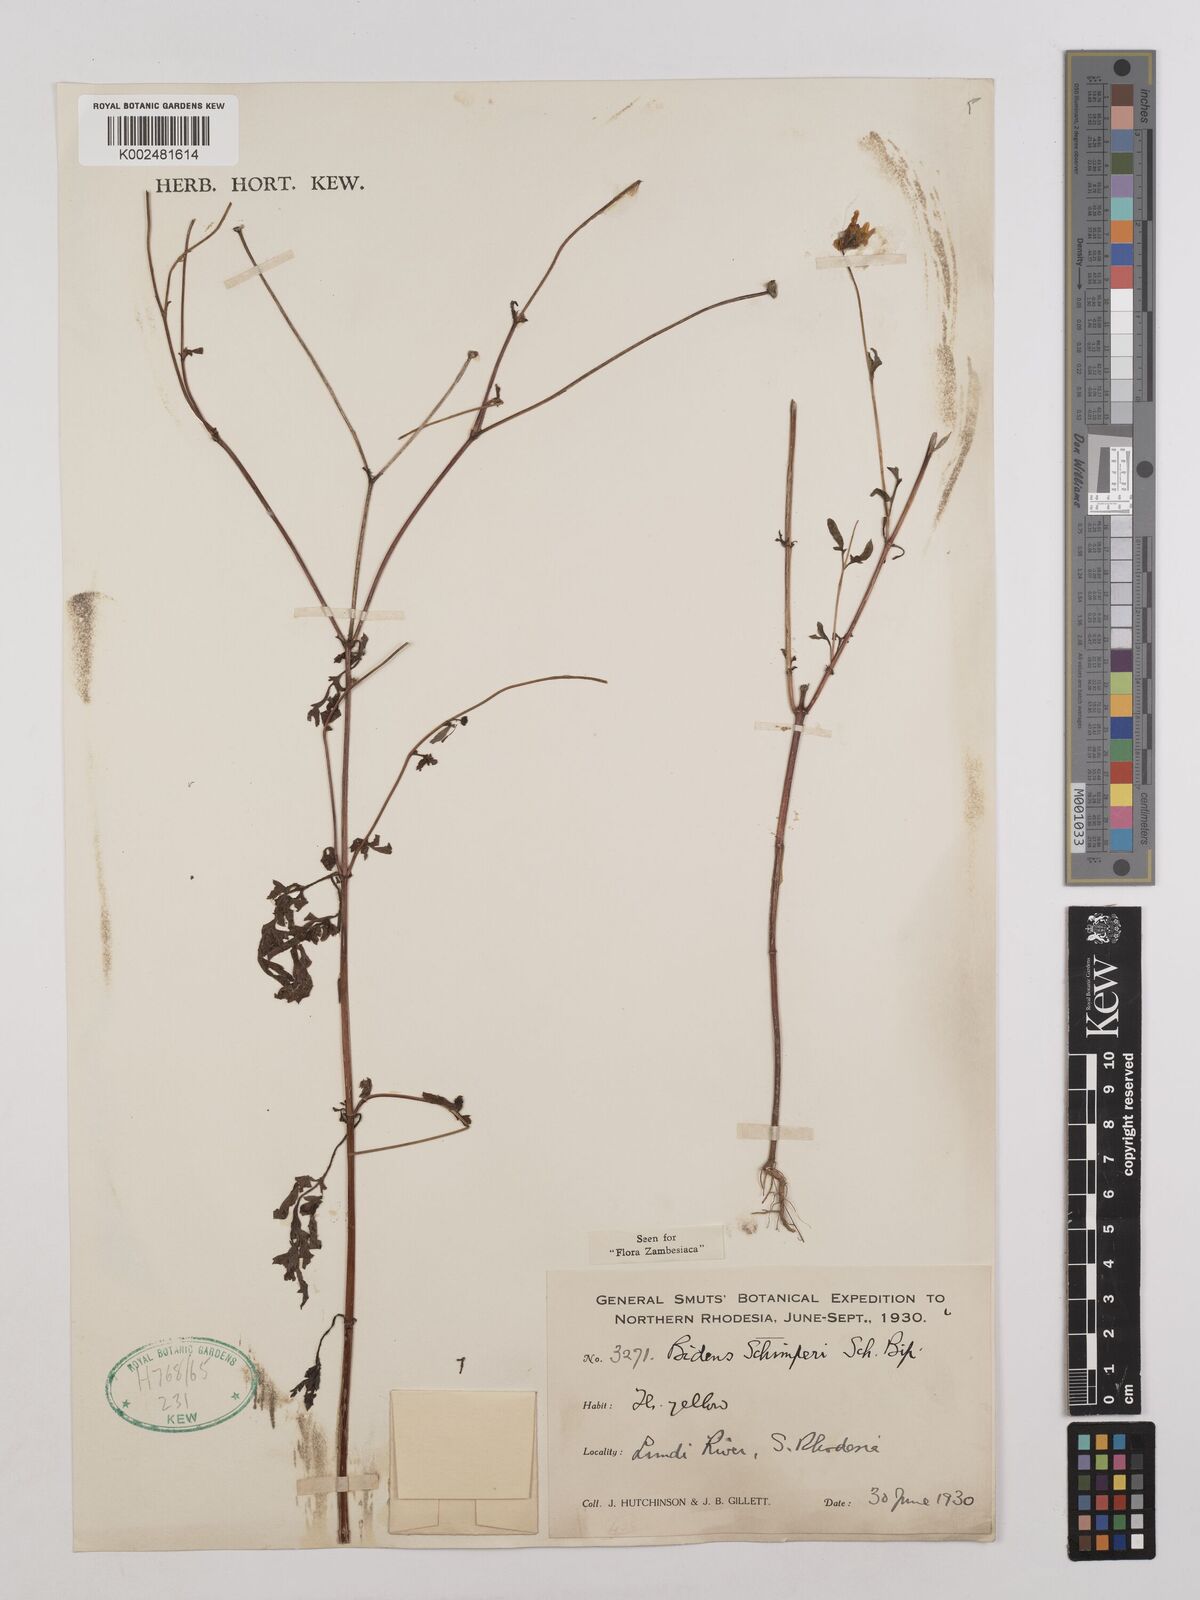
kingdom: Plantae
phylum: Tracheophyta
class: Magnoliopsida
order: Asterales
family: Asteraceae
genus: Bidens
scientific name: Bidens schimperi
